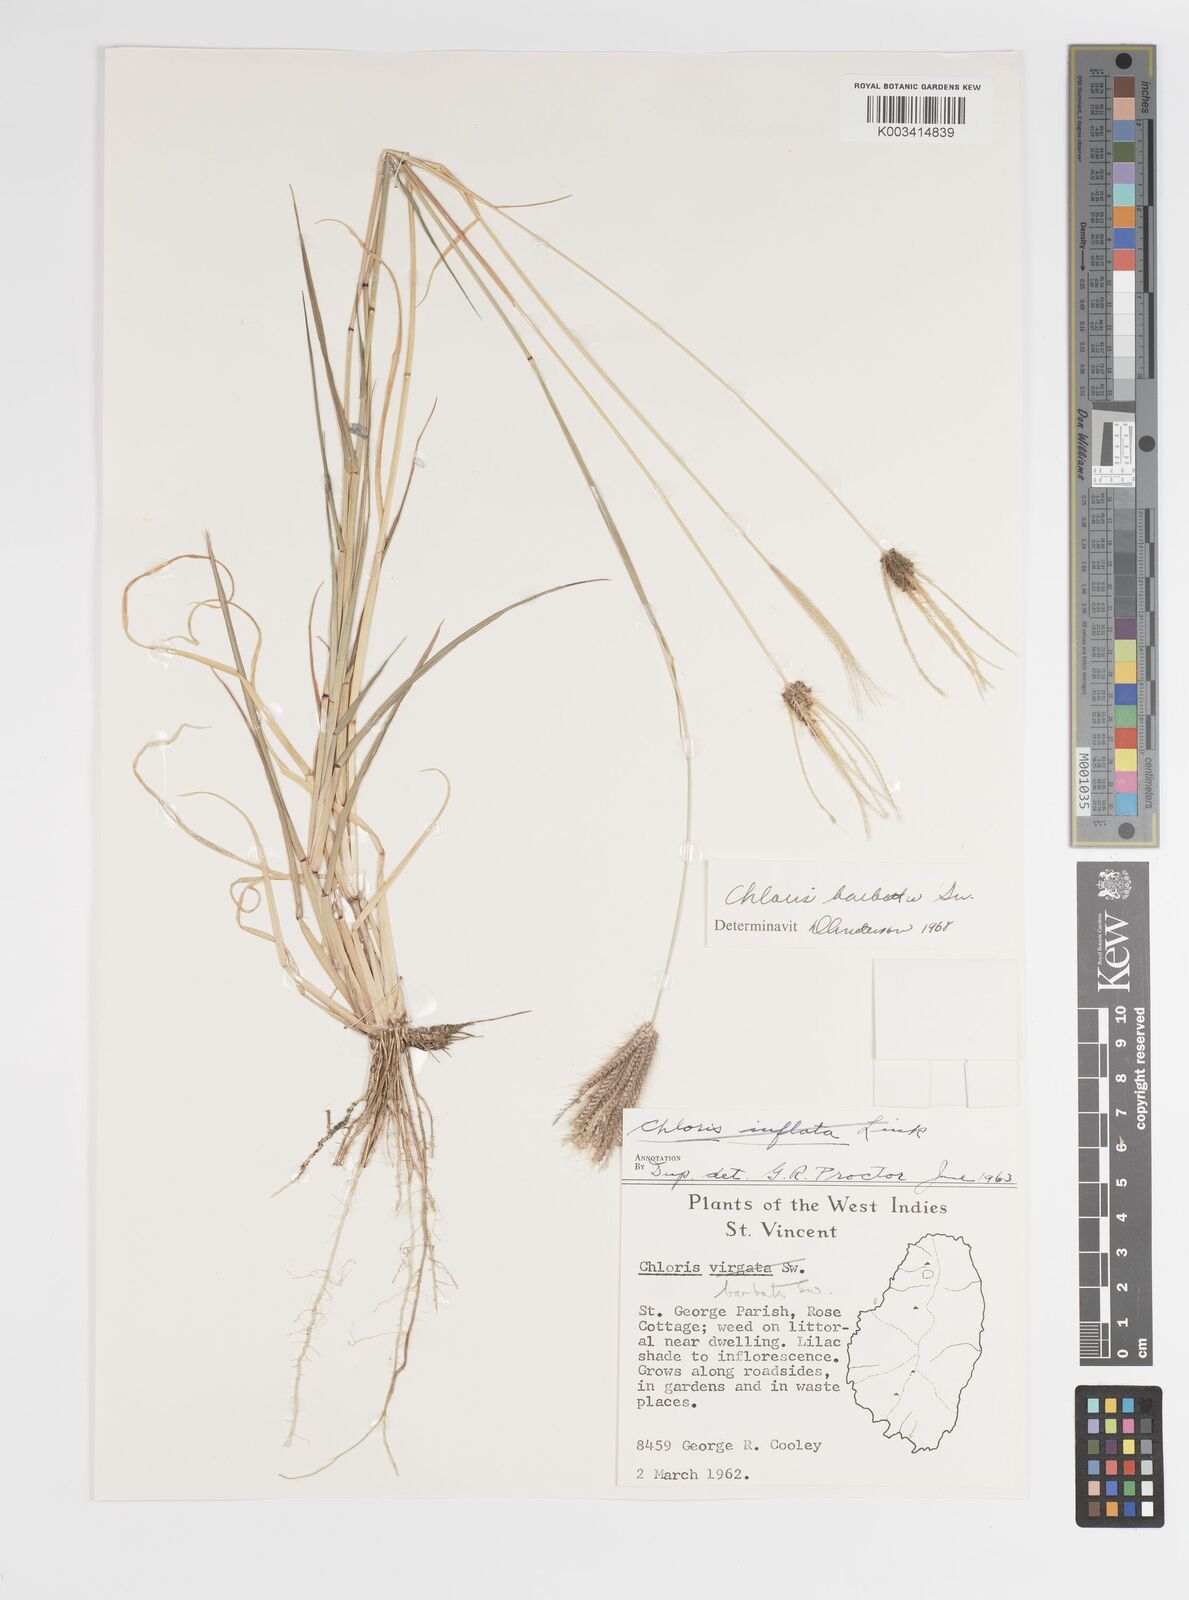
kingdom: Plantae
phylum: Tracheophyta
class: Liliopsida
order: Poales
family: Poaceae
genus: Chloris
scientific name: Chloris barbata
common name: Swollen fingergrass
